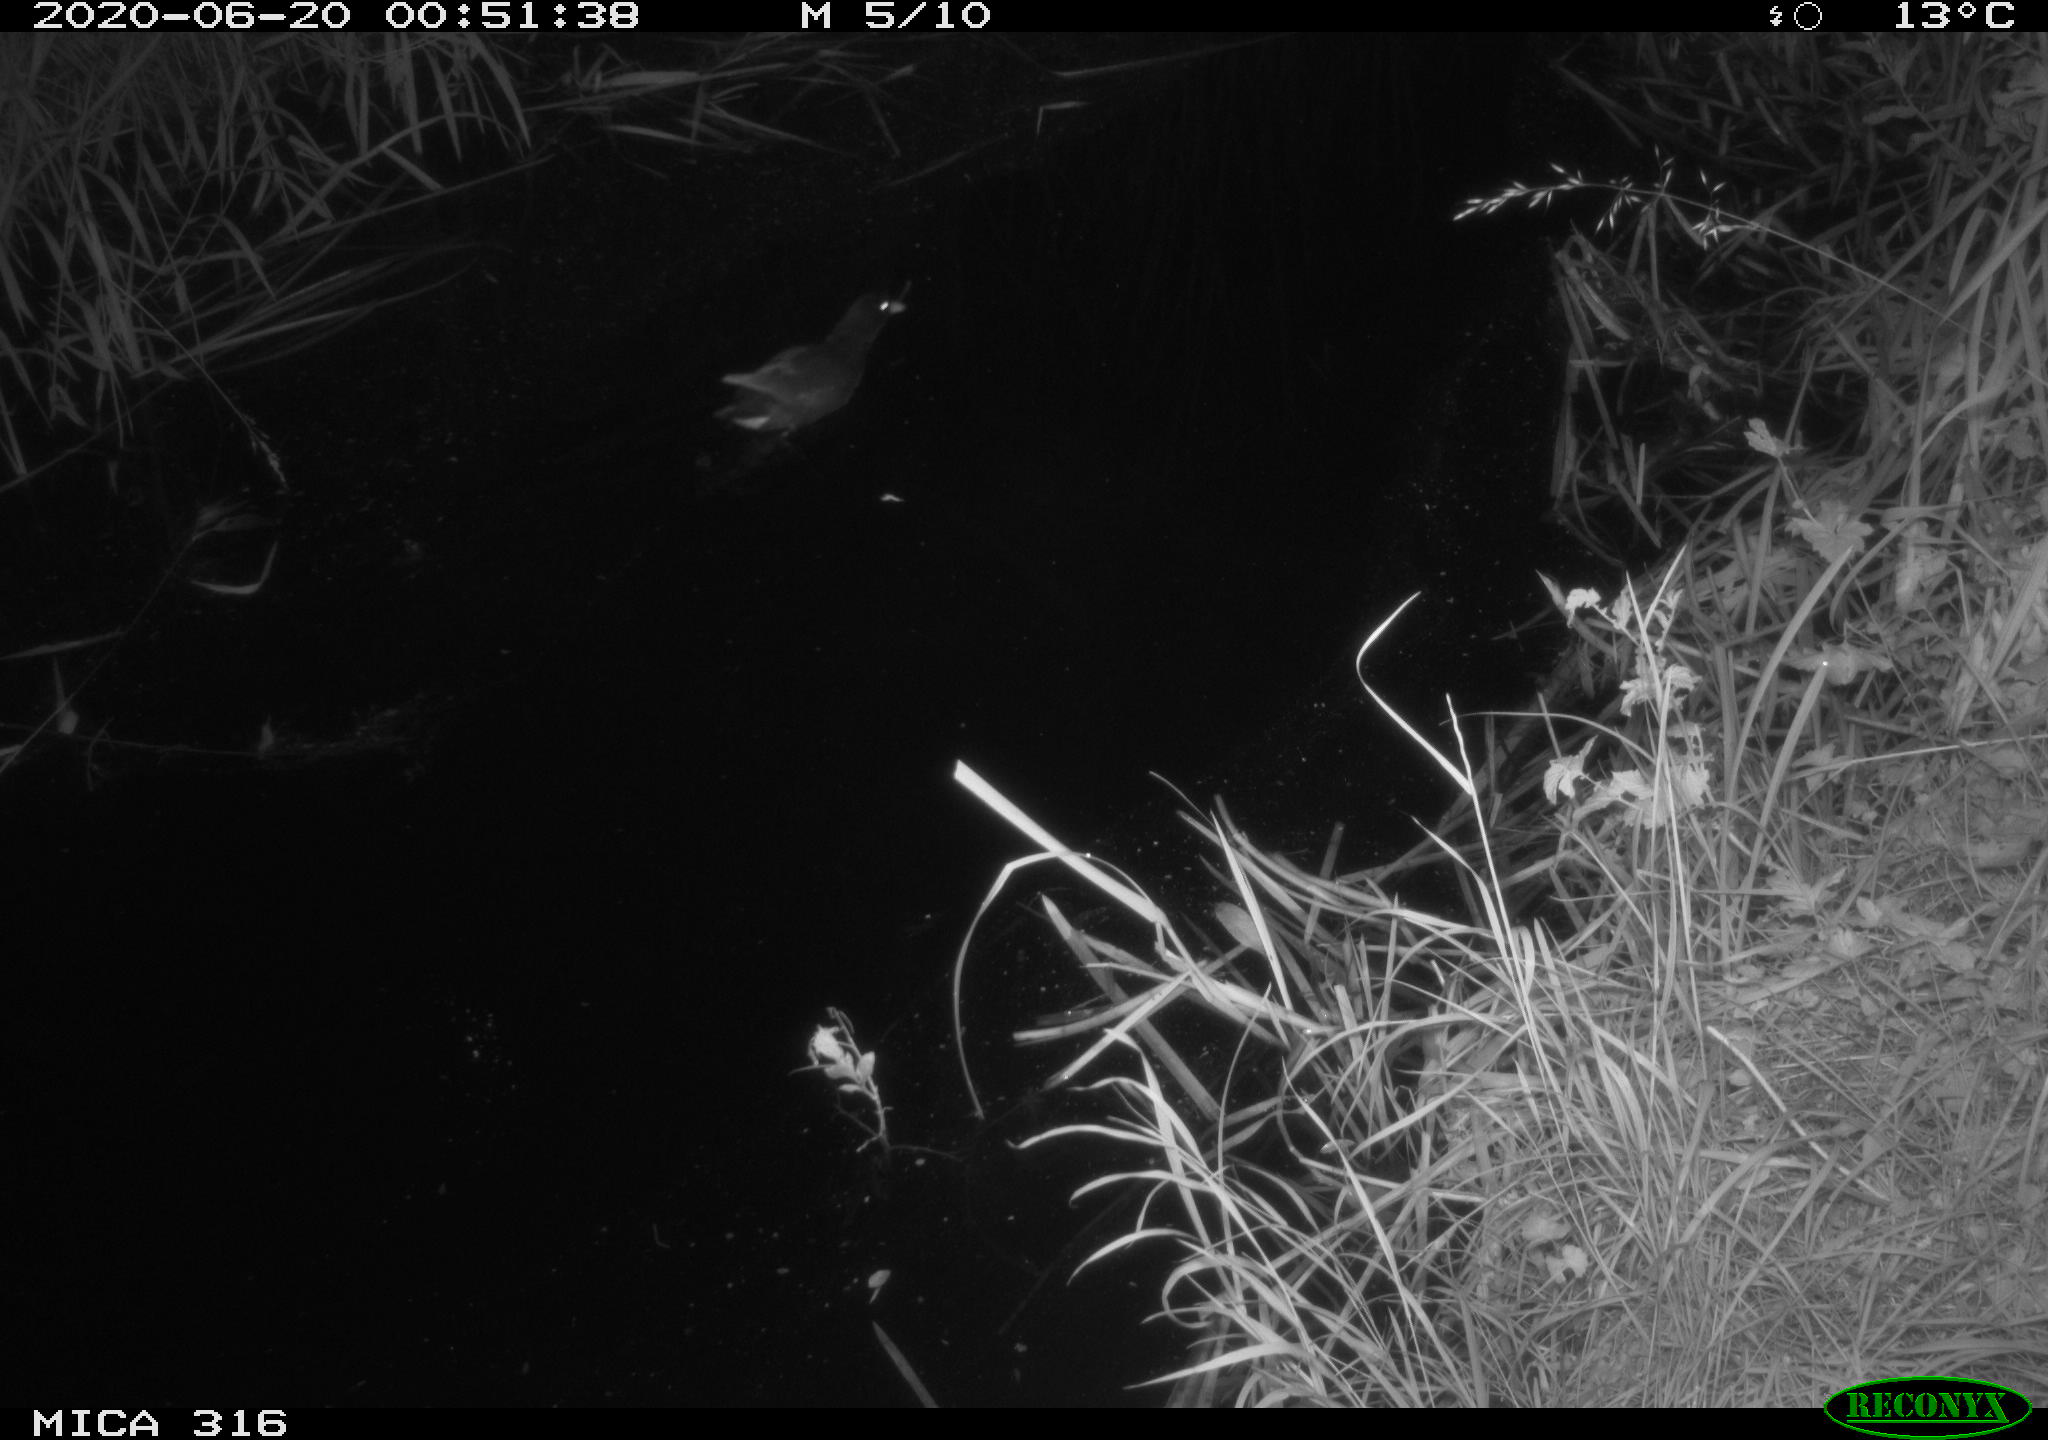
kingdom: Animalia
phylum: Chordata
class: Aves
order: Gruiformes
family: Rallidae
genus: Gallinula
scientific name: Gallinula chloropus
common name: Common moorhen
